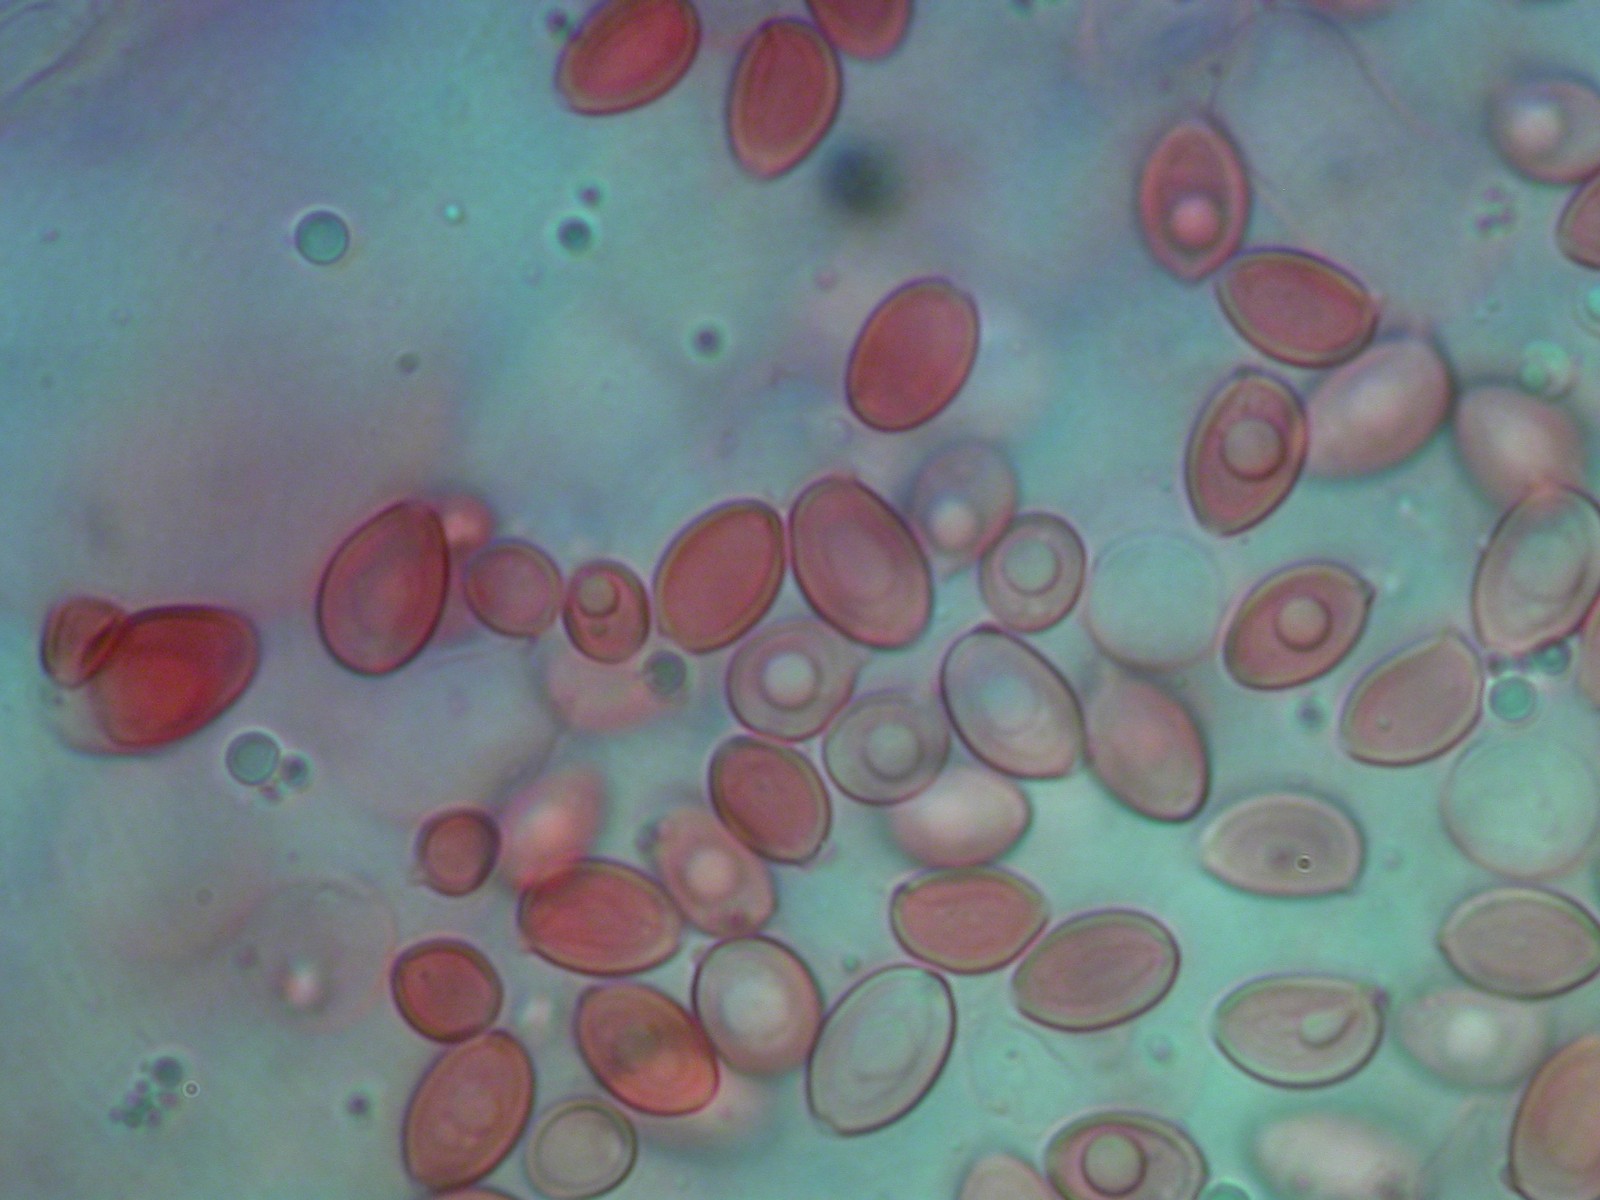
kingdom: Fungi
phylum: Basidiomycota
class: Agaricomycetes
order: Agaricales
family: Agaricaceae
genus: Leucocoprinus
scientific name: Leucocoprinus ianthinus
